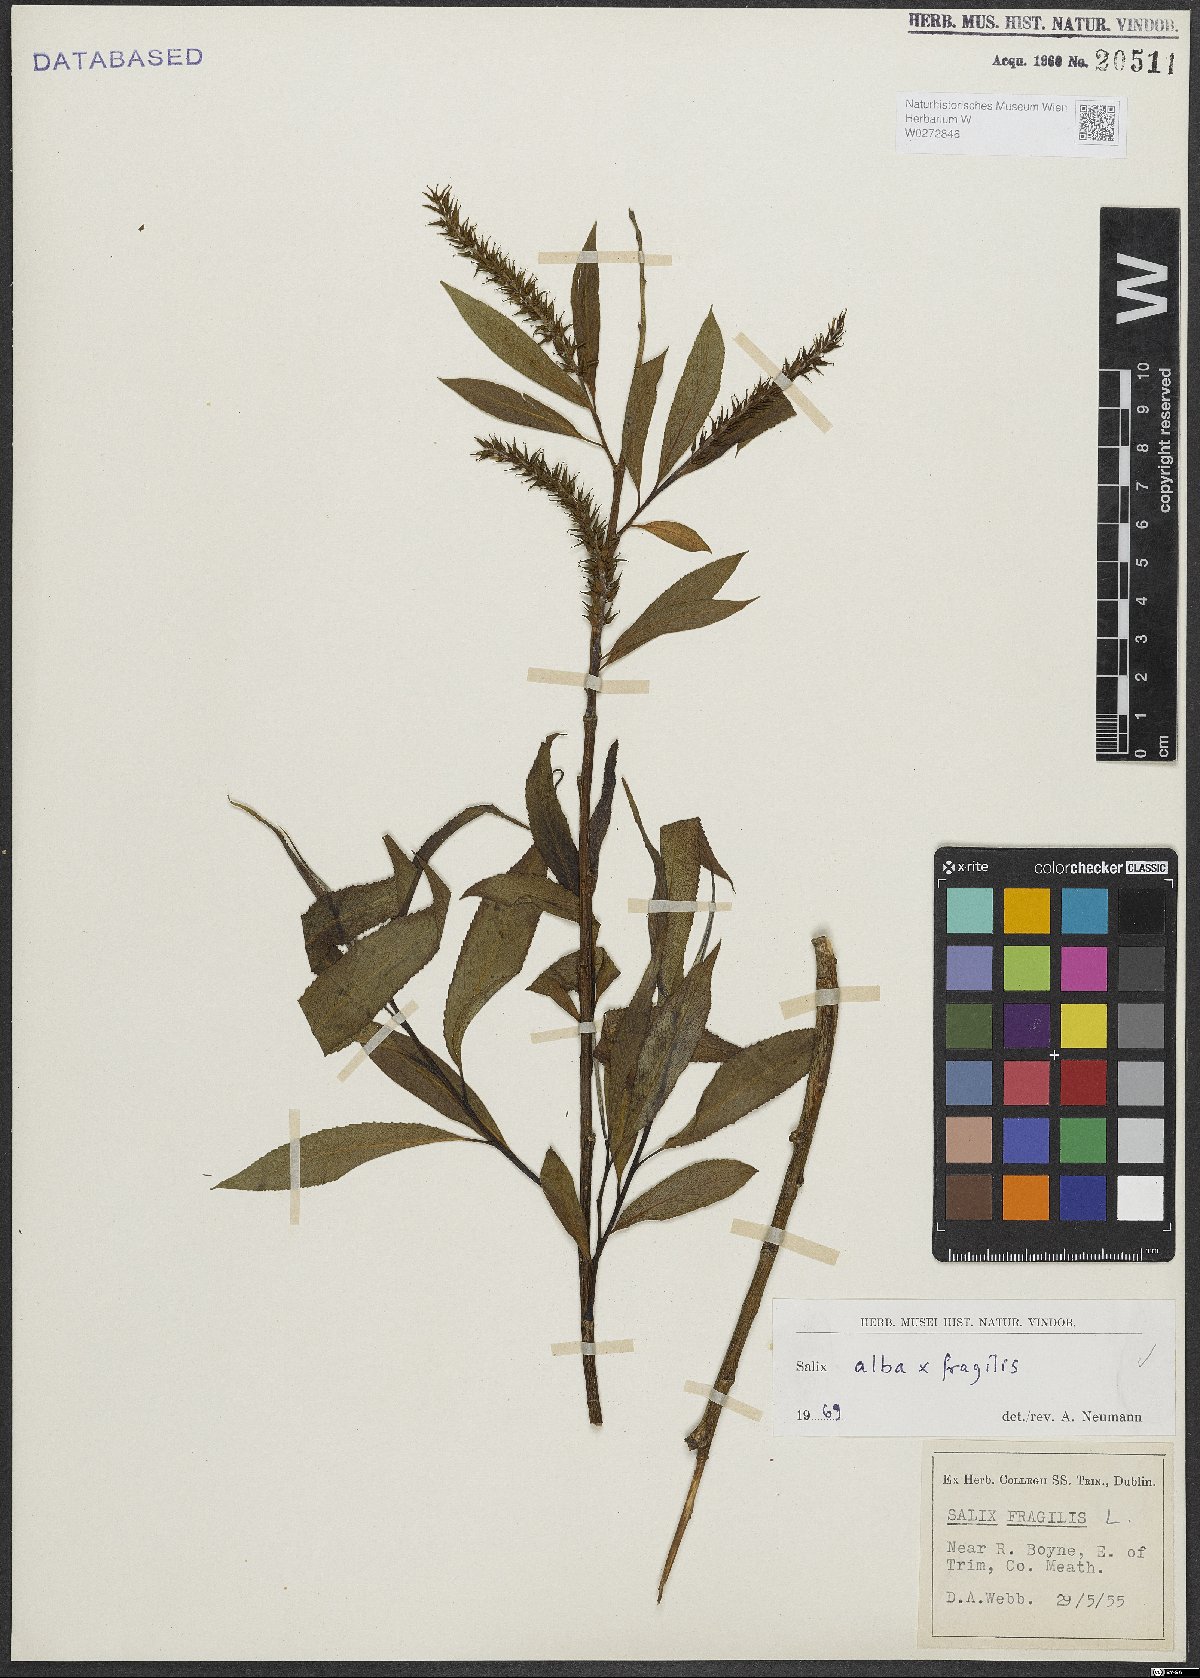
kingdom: Plantae
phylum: Tracheophyta
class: Magnoliopsida
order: Malpighiales
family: Salicaceae
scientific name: Salicaceae
